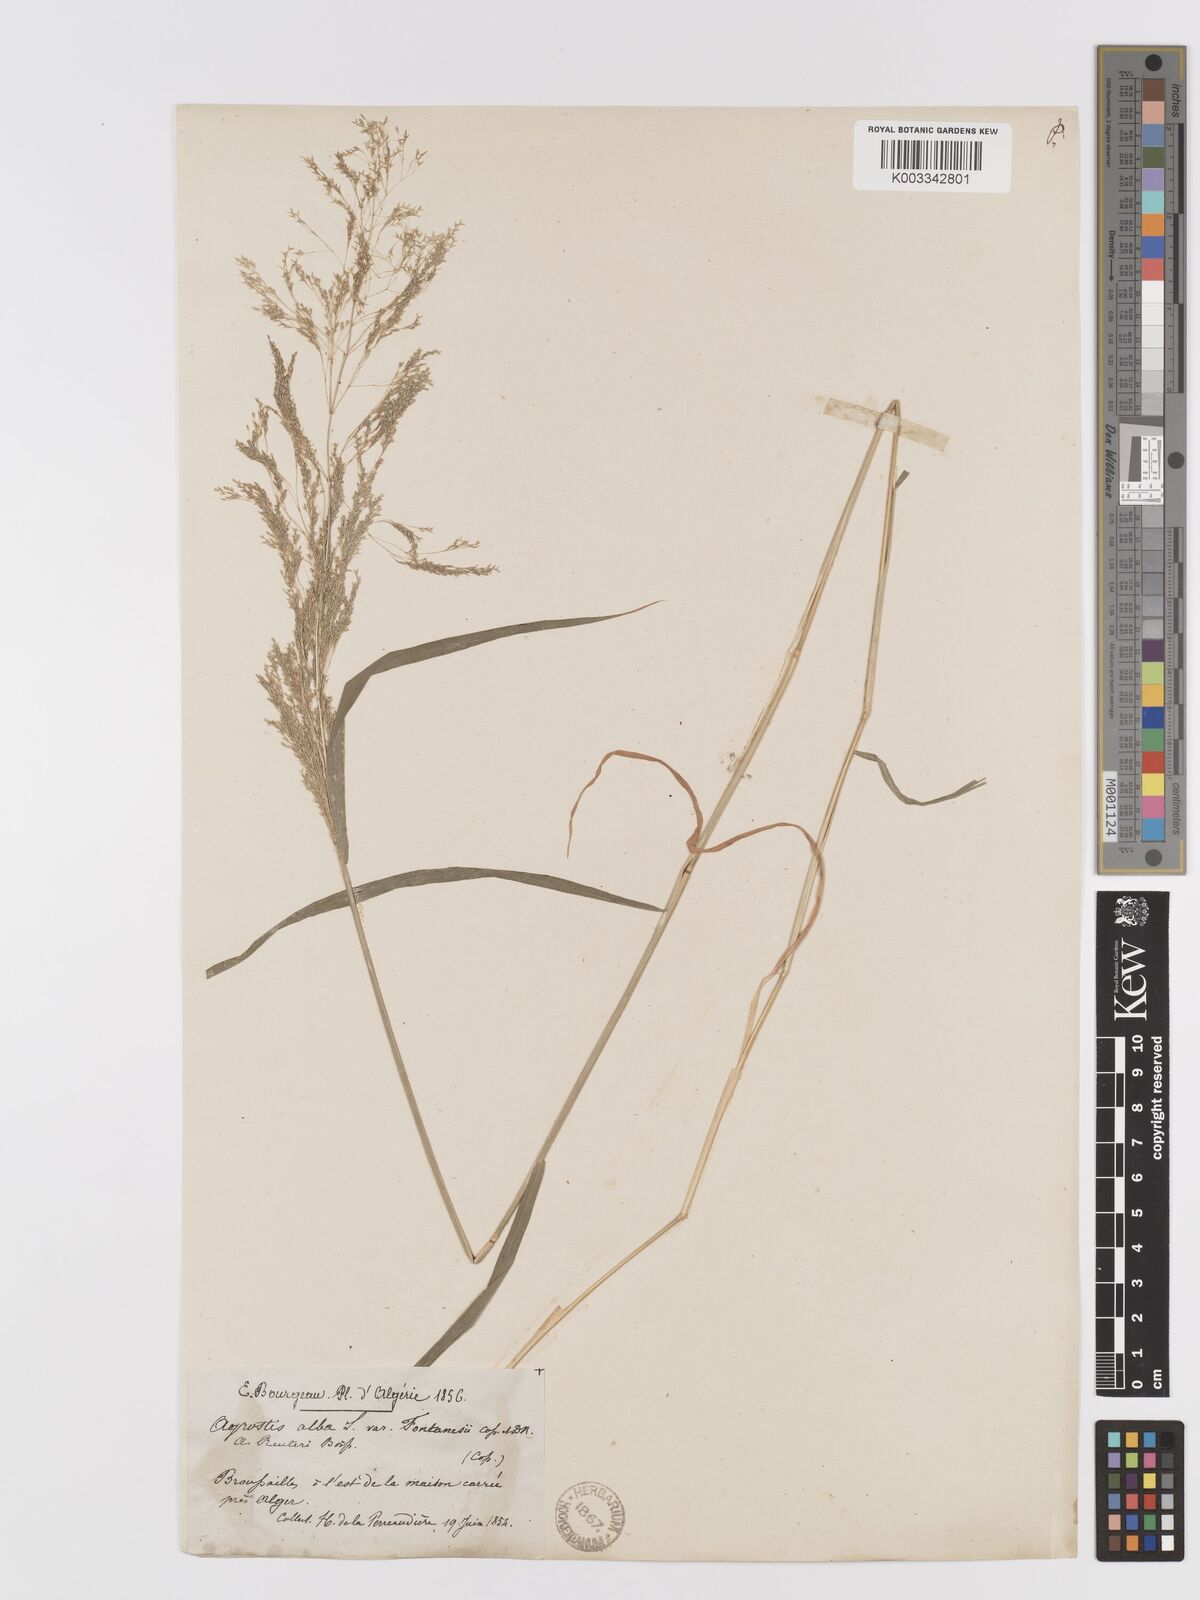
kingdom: Plantae
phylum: Tracheophyta
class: Liliopsida
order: Poales
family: Poaceae
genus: Agrostis
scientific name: Agrostis reuteri
